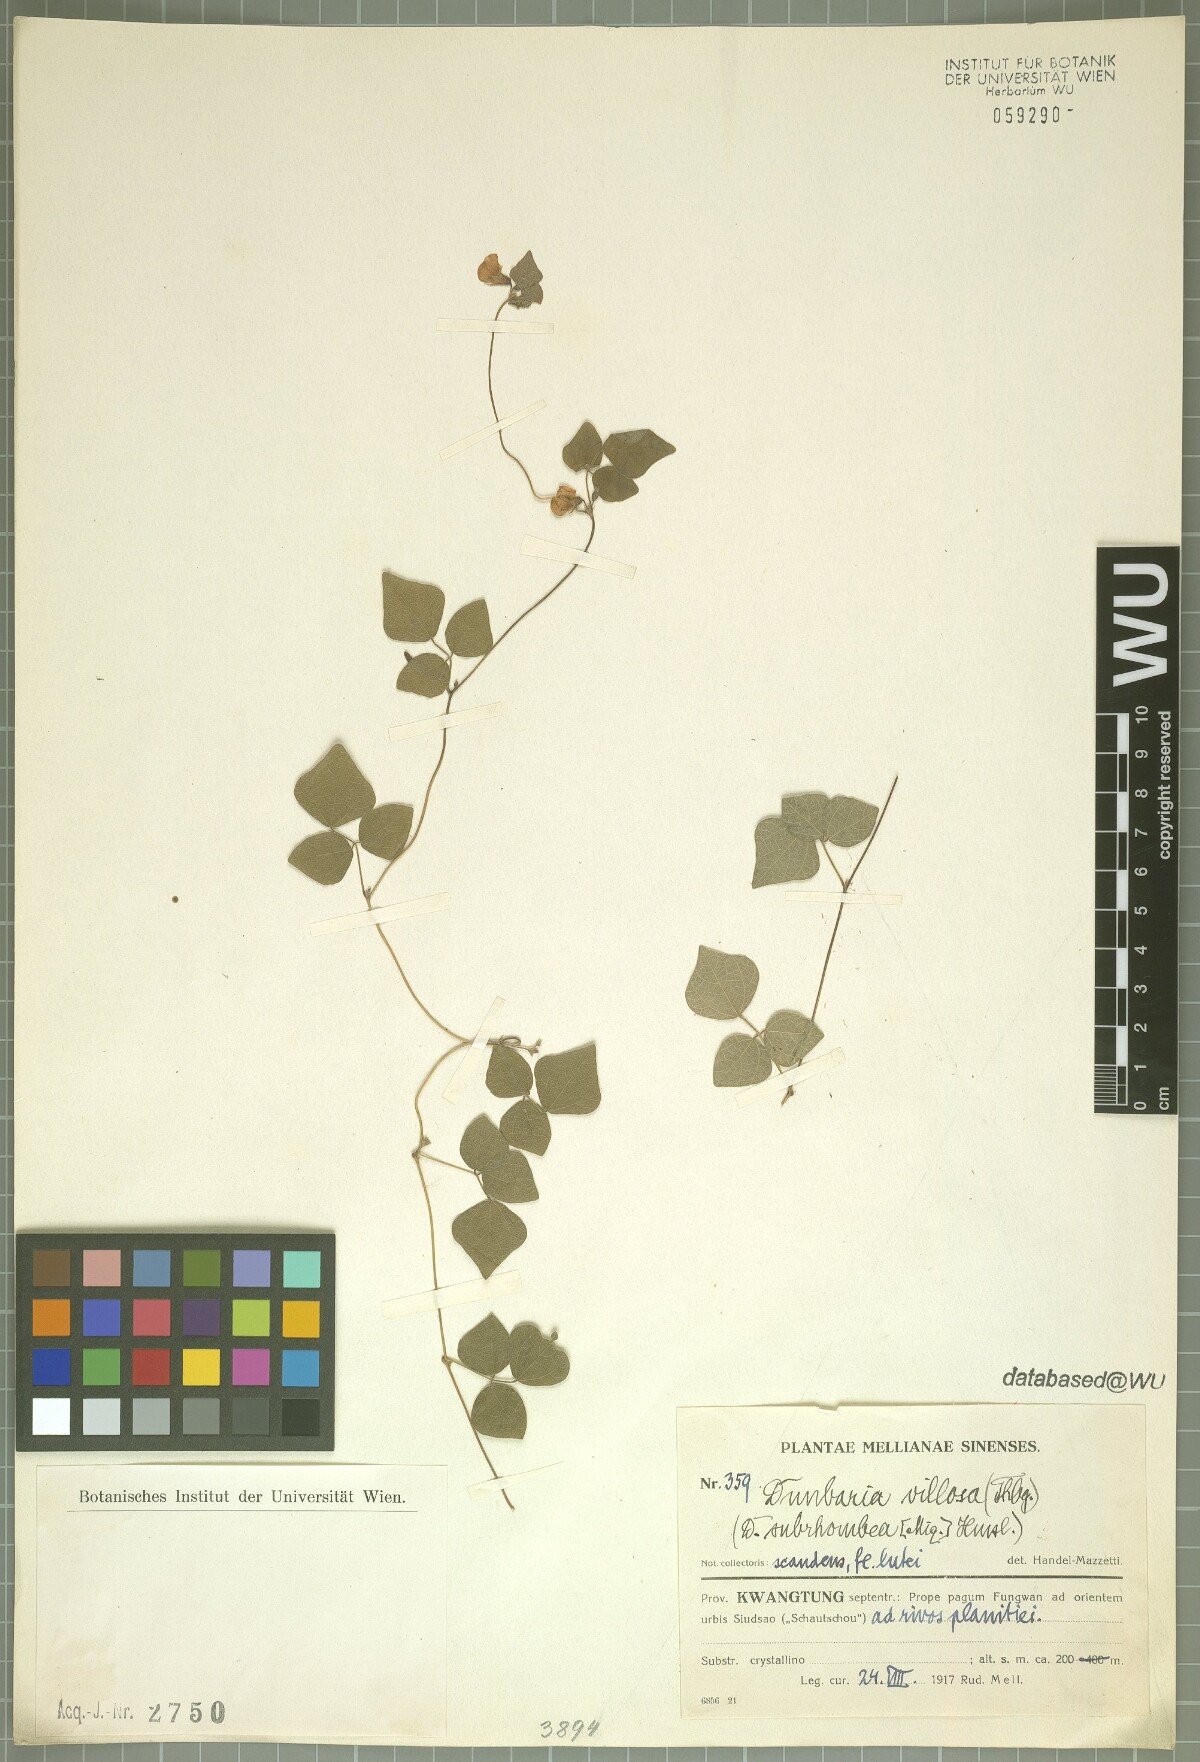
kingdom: Plantae
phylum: Tracheophyta
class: Magnoliopsida
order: Fabales
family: Fabaceae
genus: Dunbaria
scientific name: Dunbaria villosa
